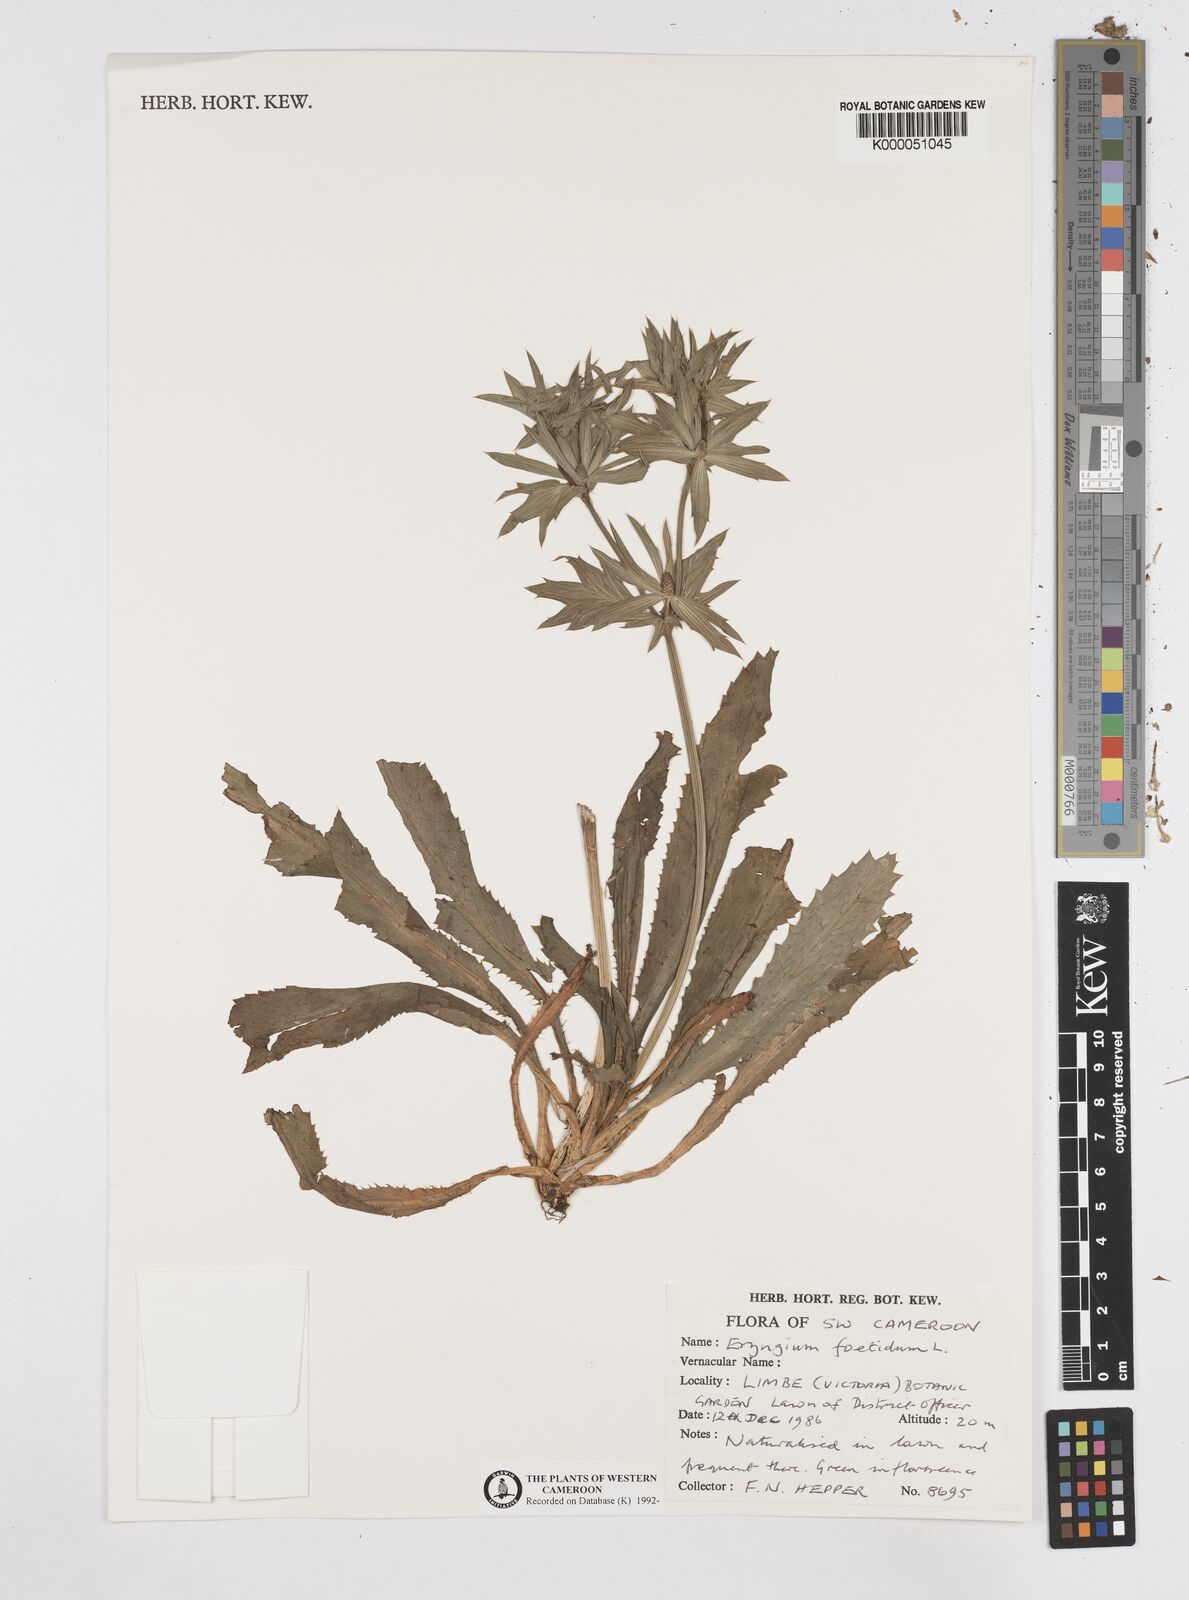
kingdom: Plantae
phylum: Tracheophyta
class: Magnoliopsida
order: Apiales
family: Apiaceae
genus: Eryngium
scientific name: Eryngium foetidum
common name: Fitweed
